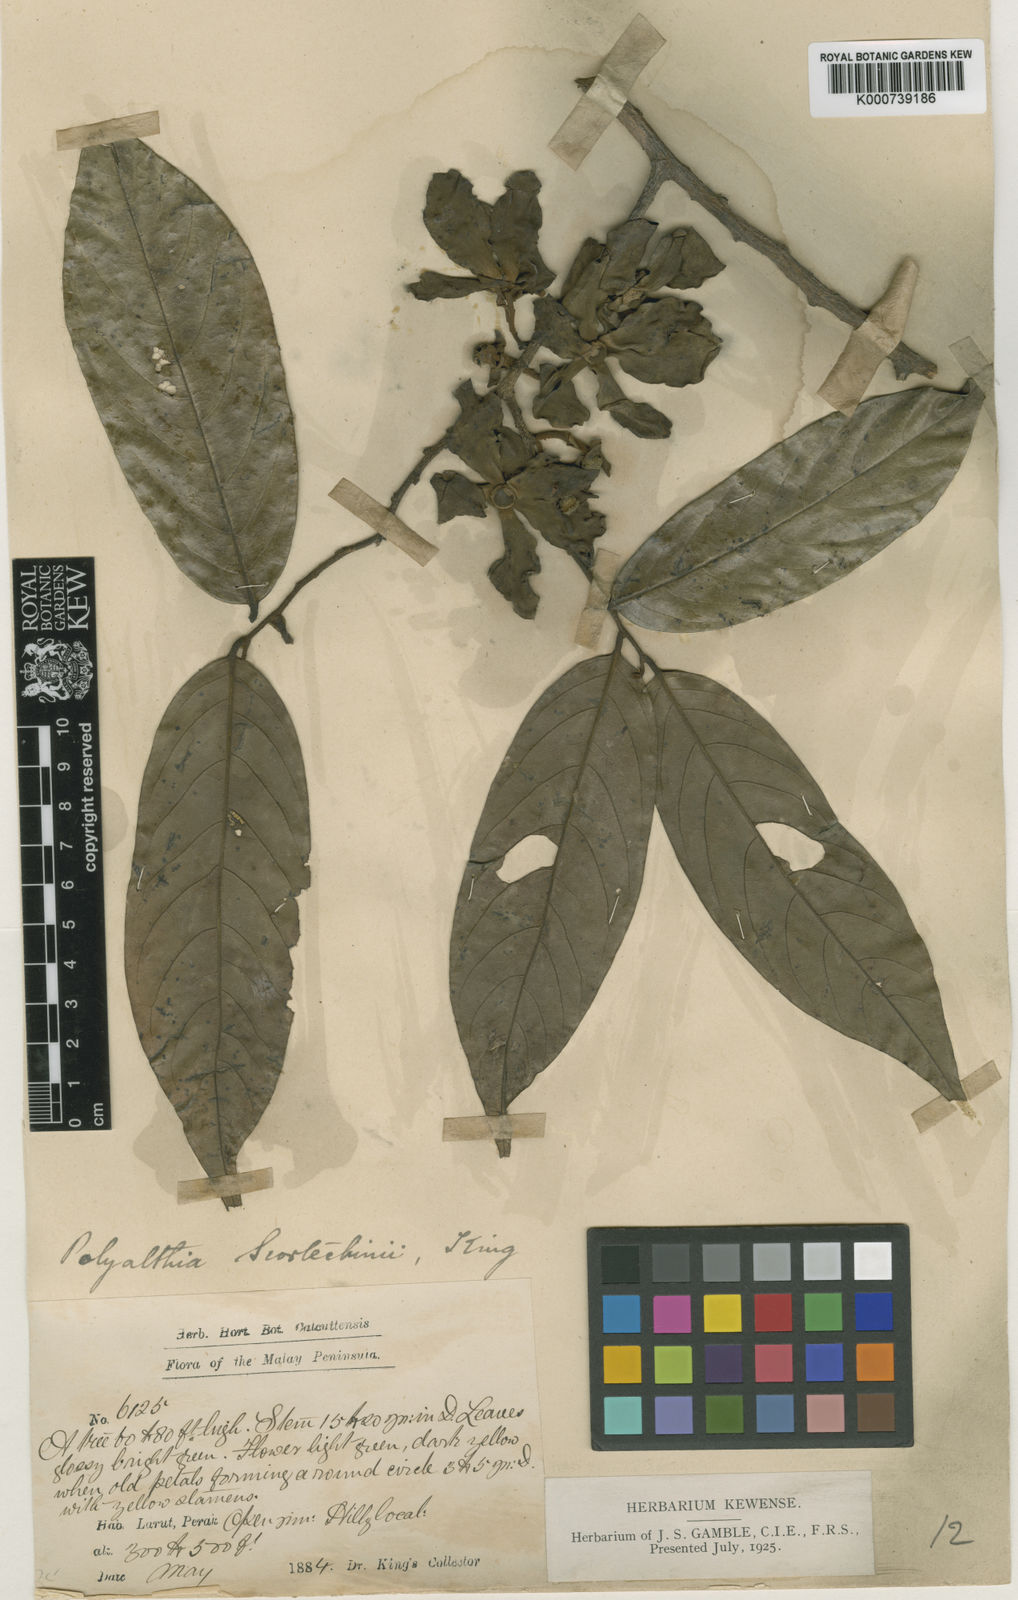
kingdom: Plantae
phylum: Tracheophyta
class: Magnoliopsida
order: Magnoliales
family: Annonaceae
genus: Hubera
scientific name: Hubera rumphii
